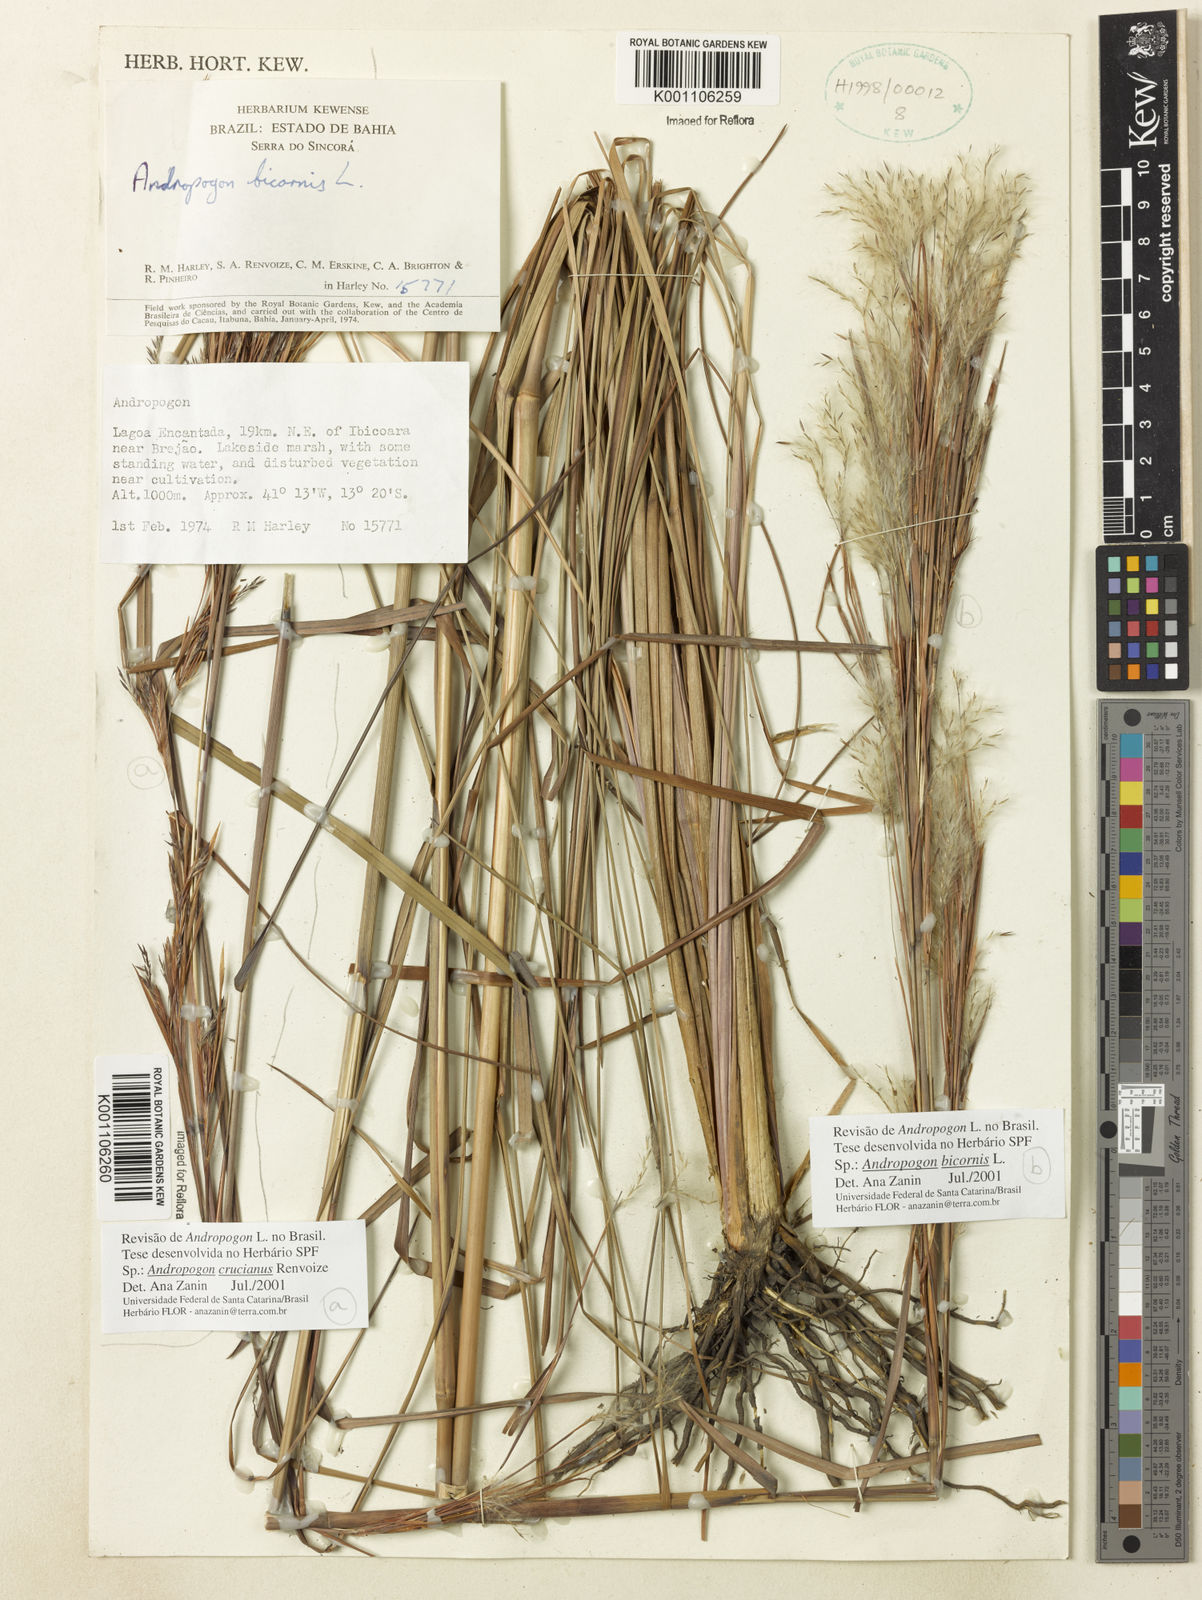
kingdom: Plantae
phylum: Tracheophyta
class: Liliopsida
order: Poales
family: Poaceae
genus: Andropogon
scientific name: Andropogon crucianus
